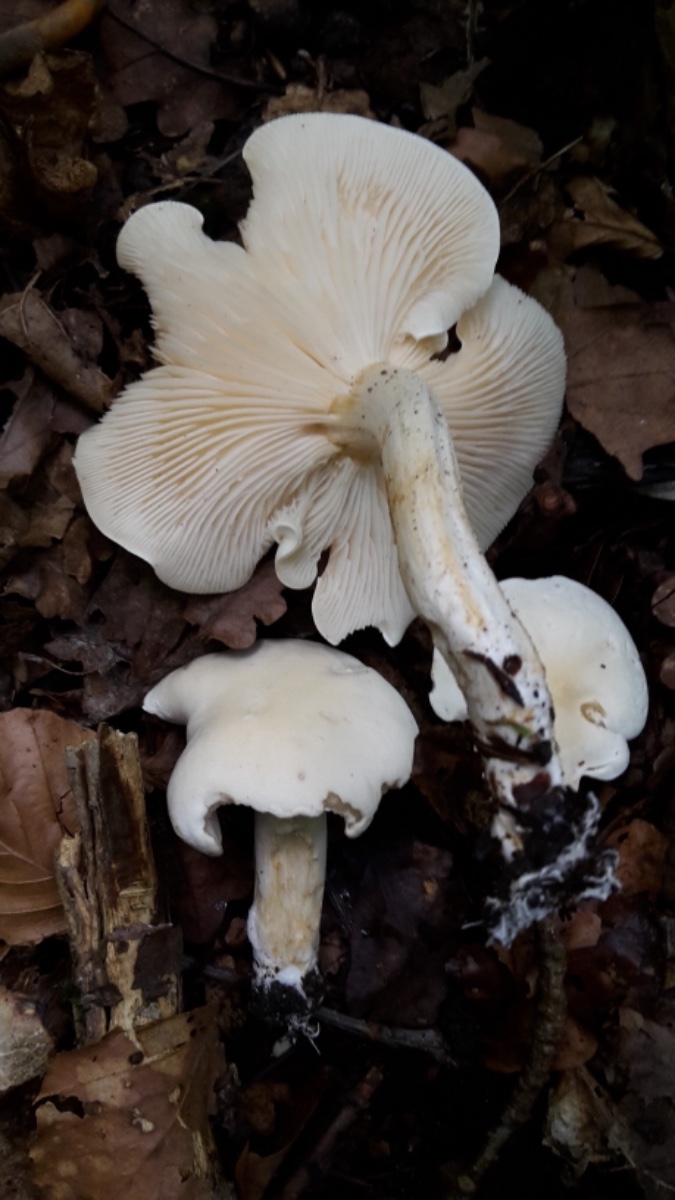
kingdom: Fungi
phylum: Basidiomycota
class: Agaricomycetes
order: Agaricales
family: Tricholomataceae
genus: Tricholoma
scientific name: Tricholoma album
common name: honning-ridderhat
